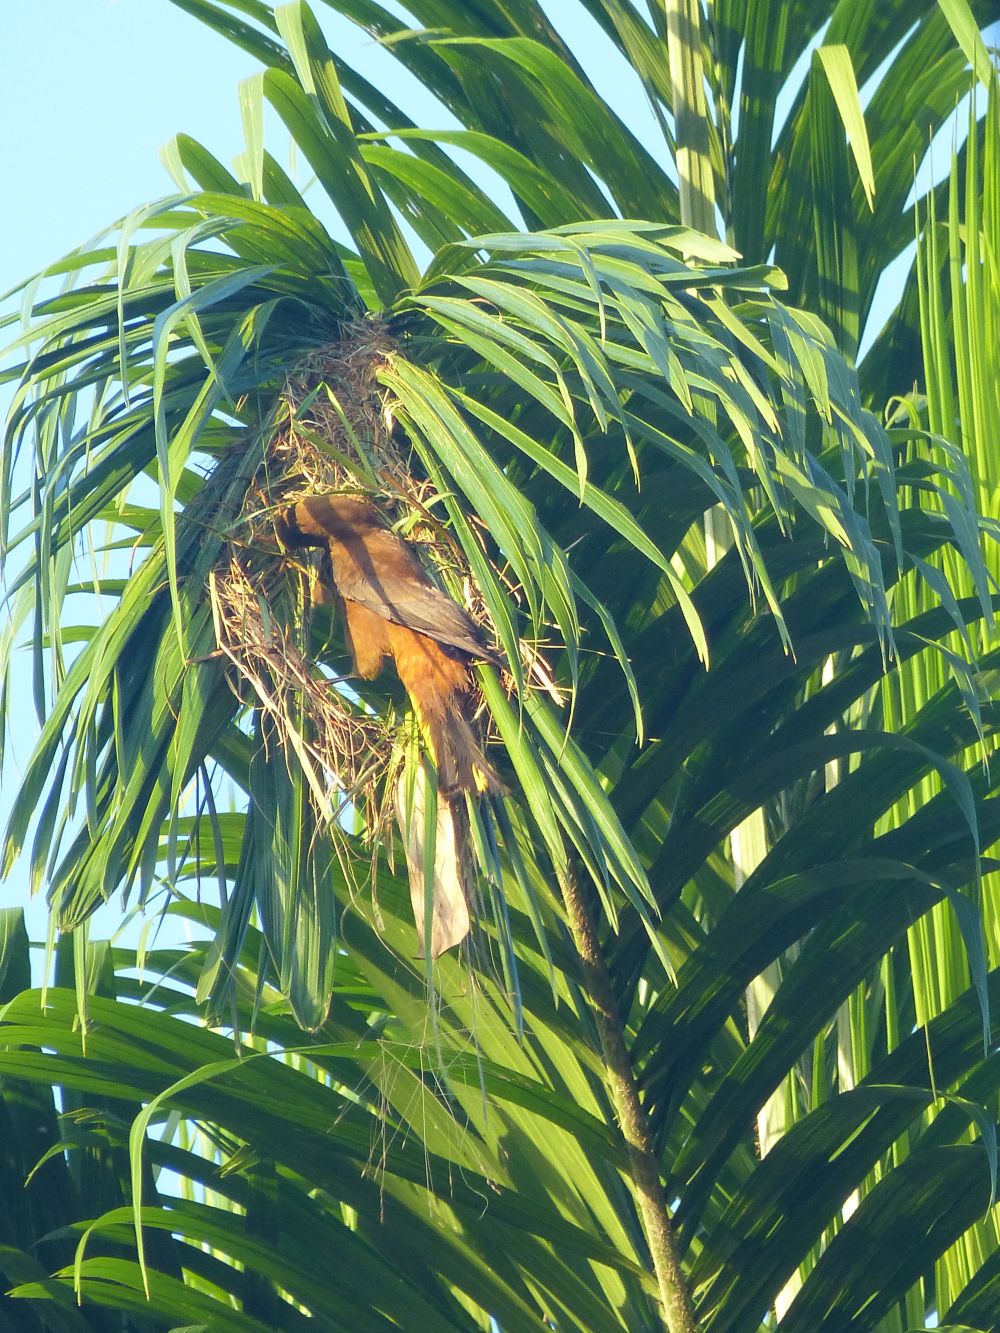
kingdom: Animalia
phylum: Chordata
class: Aves
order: Passeriformes
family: Icteridae
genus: Psarocolius
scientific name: Psarocolius angustifrons
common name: Russet-backed oropendola
